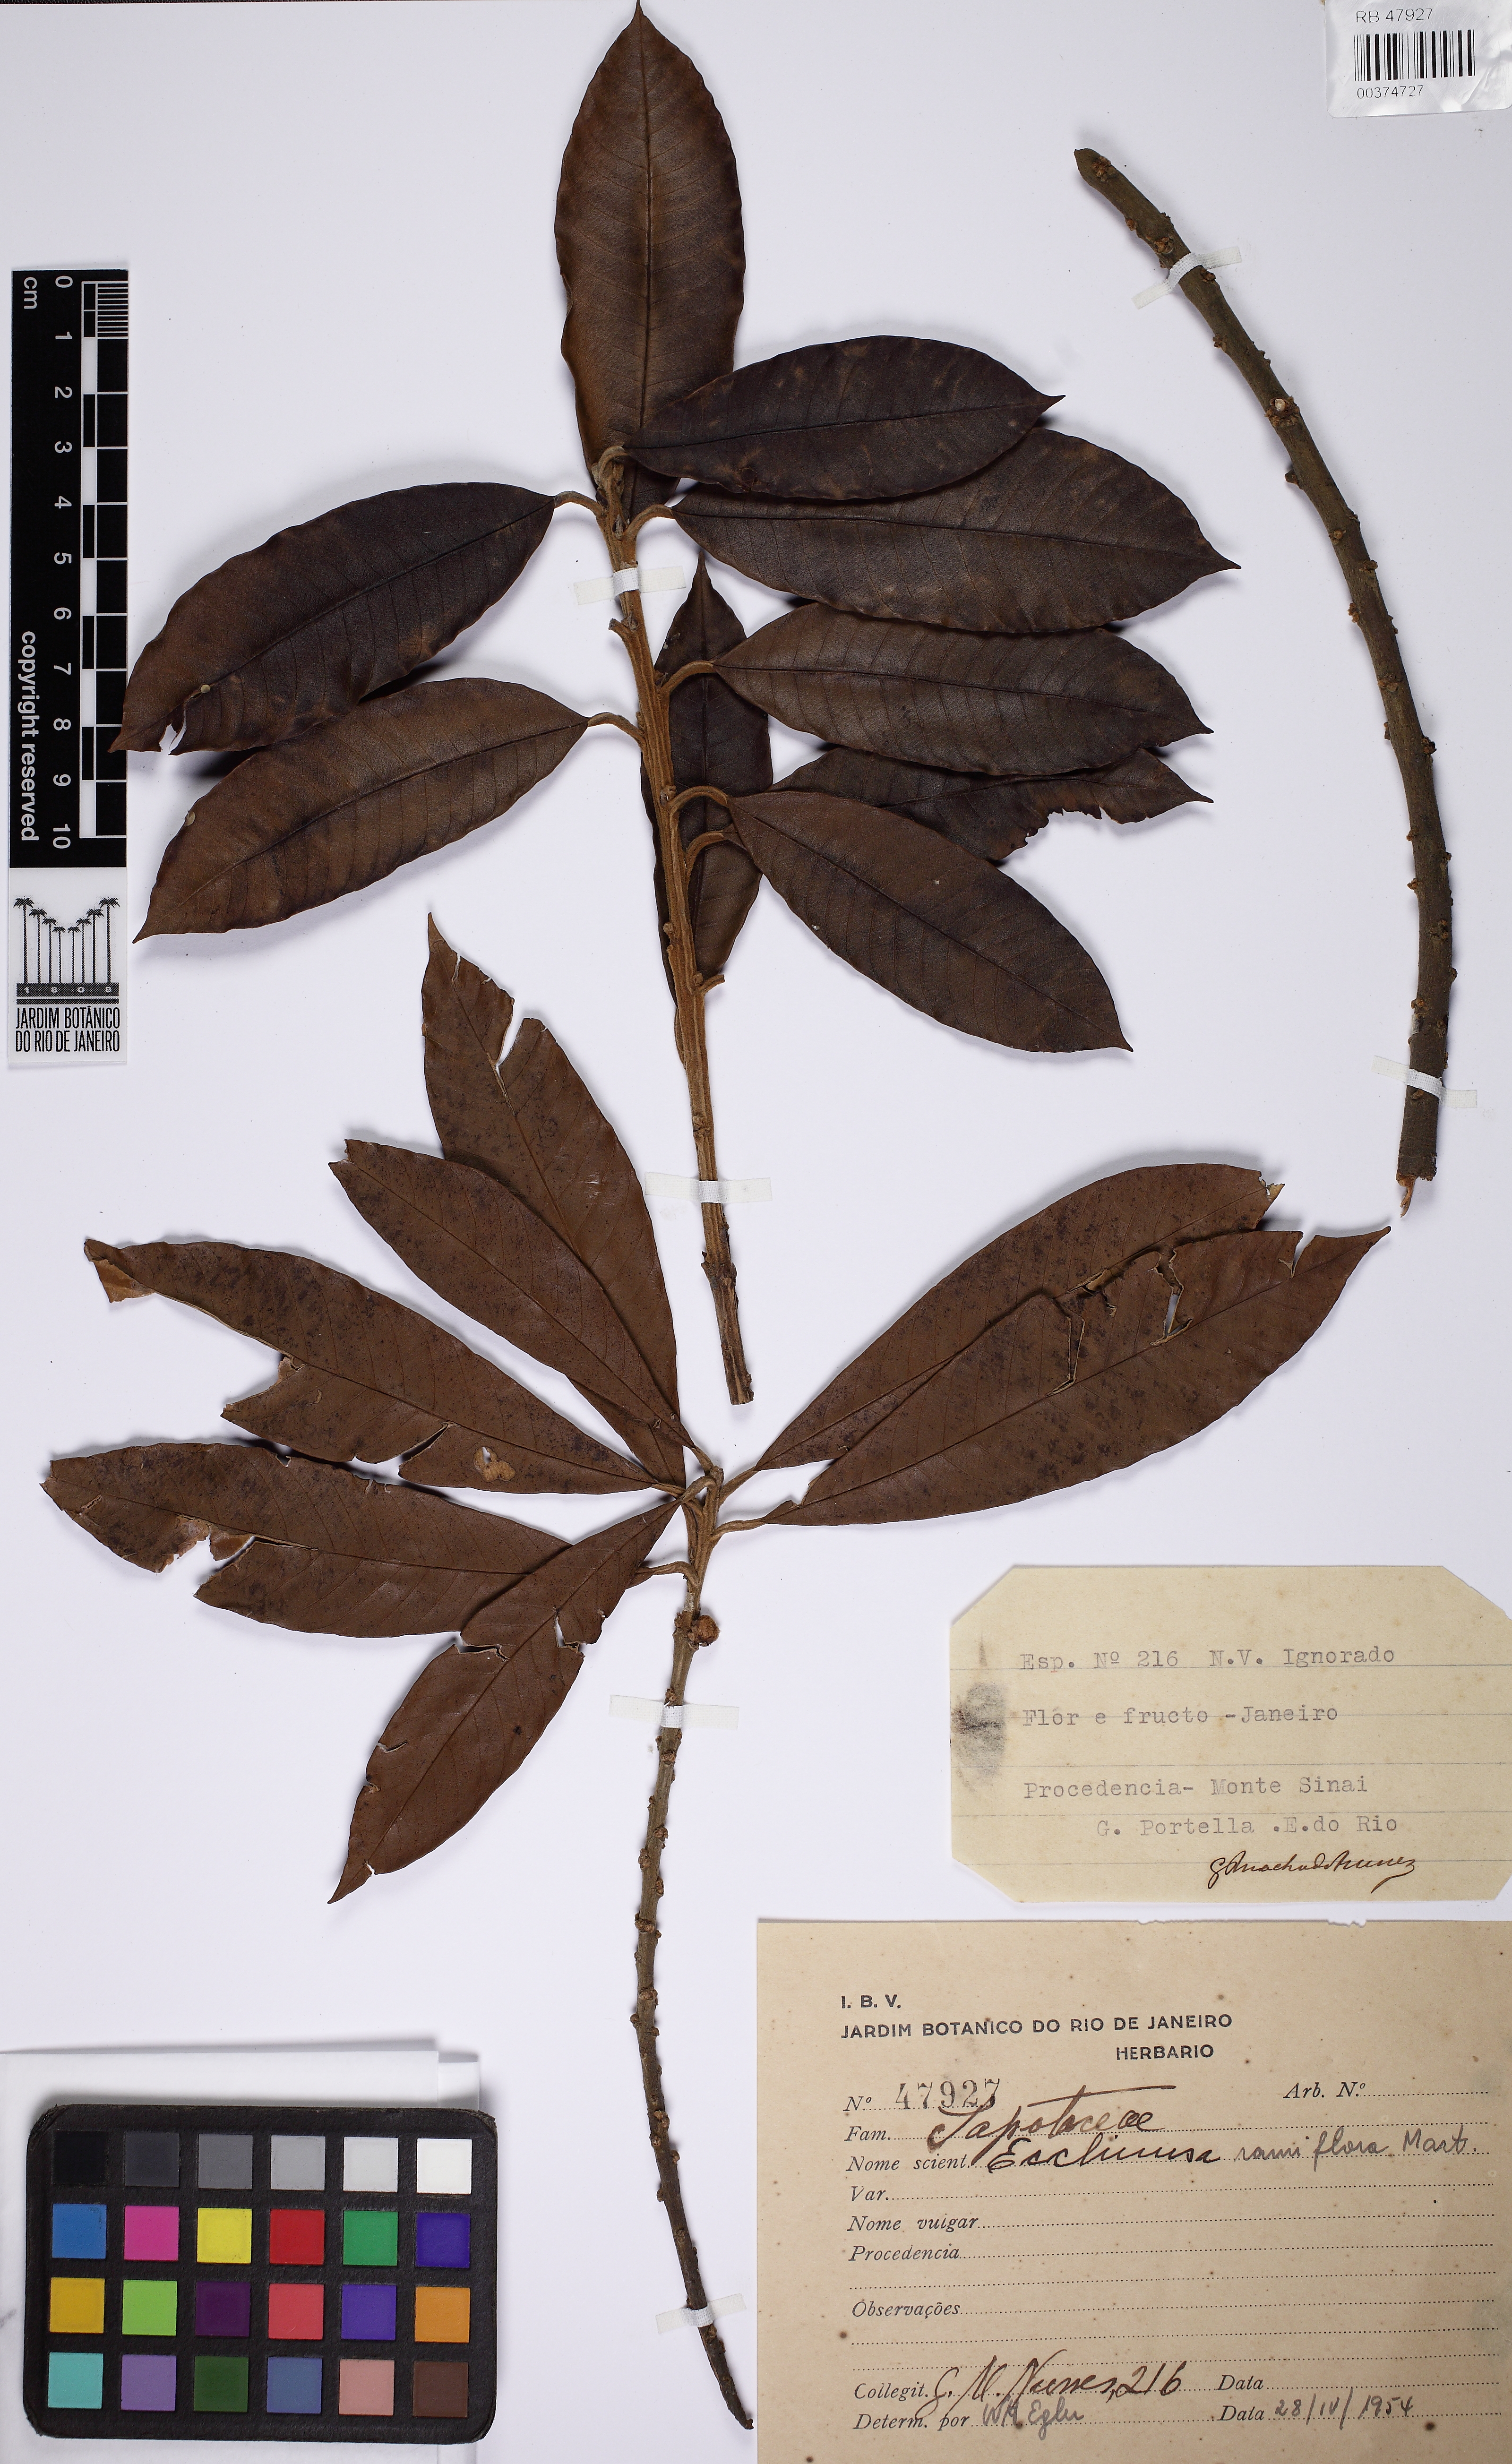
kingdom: Plantae
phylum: Tracheophyta
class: Magnoliopsida
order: Ericales
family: Sapotaceae
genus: Ecclinusa
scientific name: Ecclinusa ramiflora
